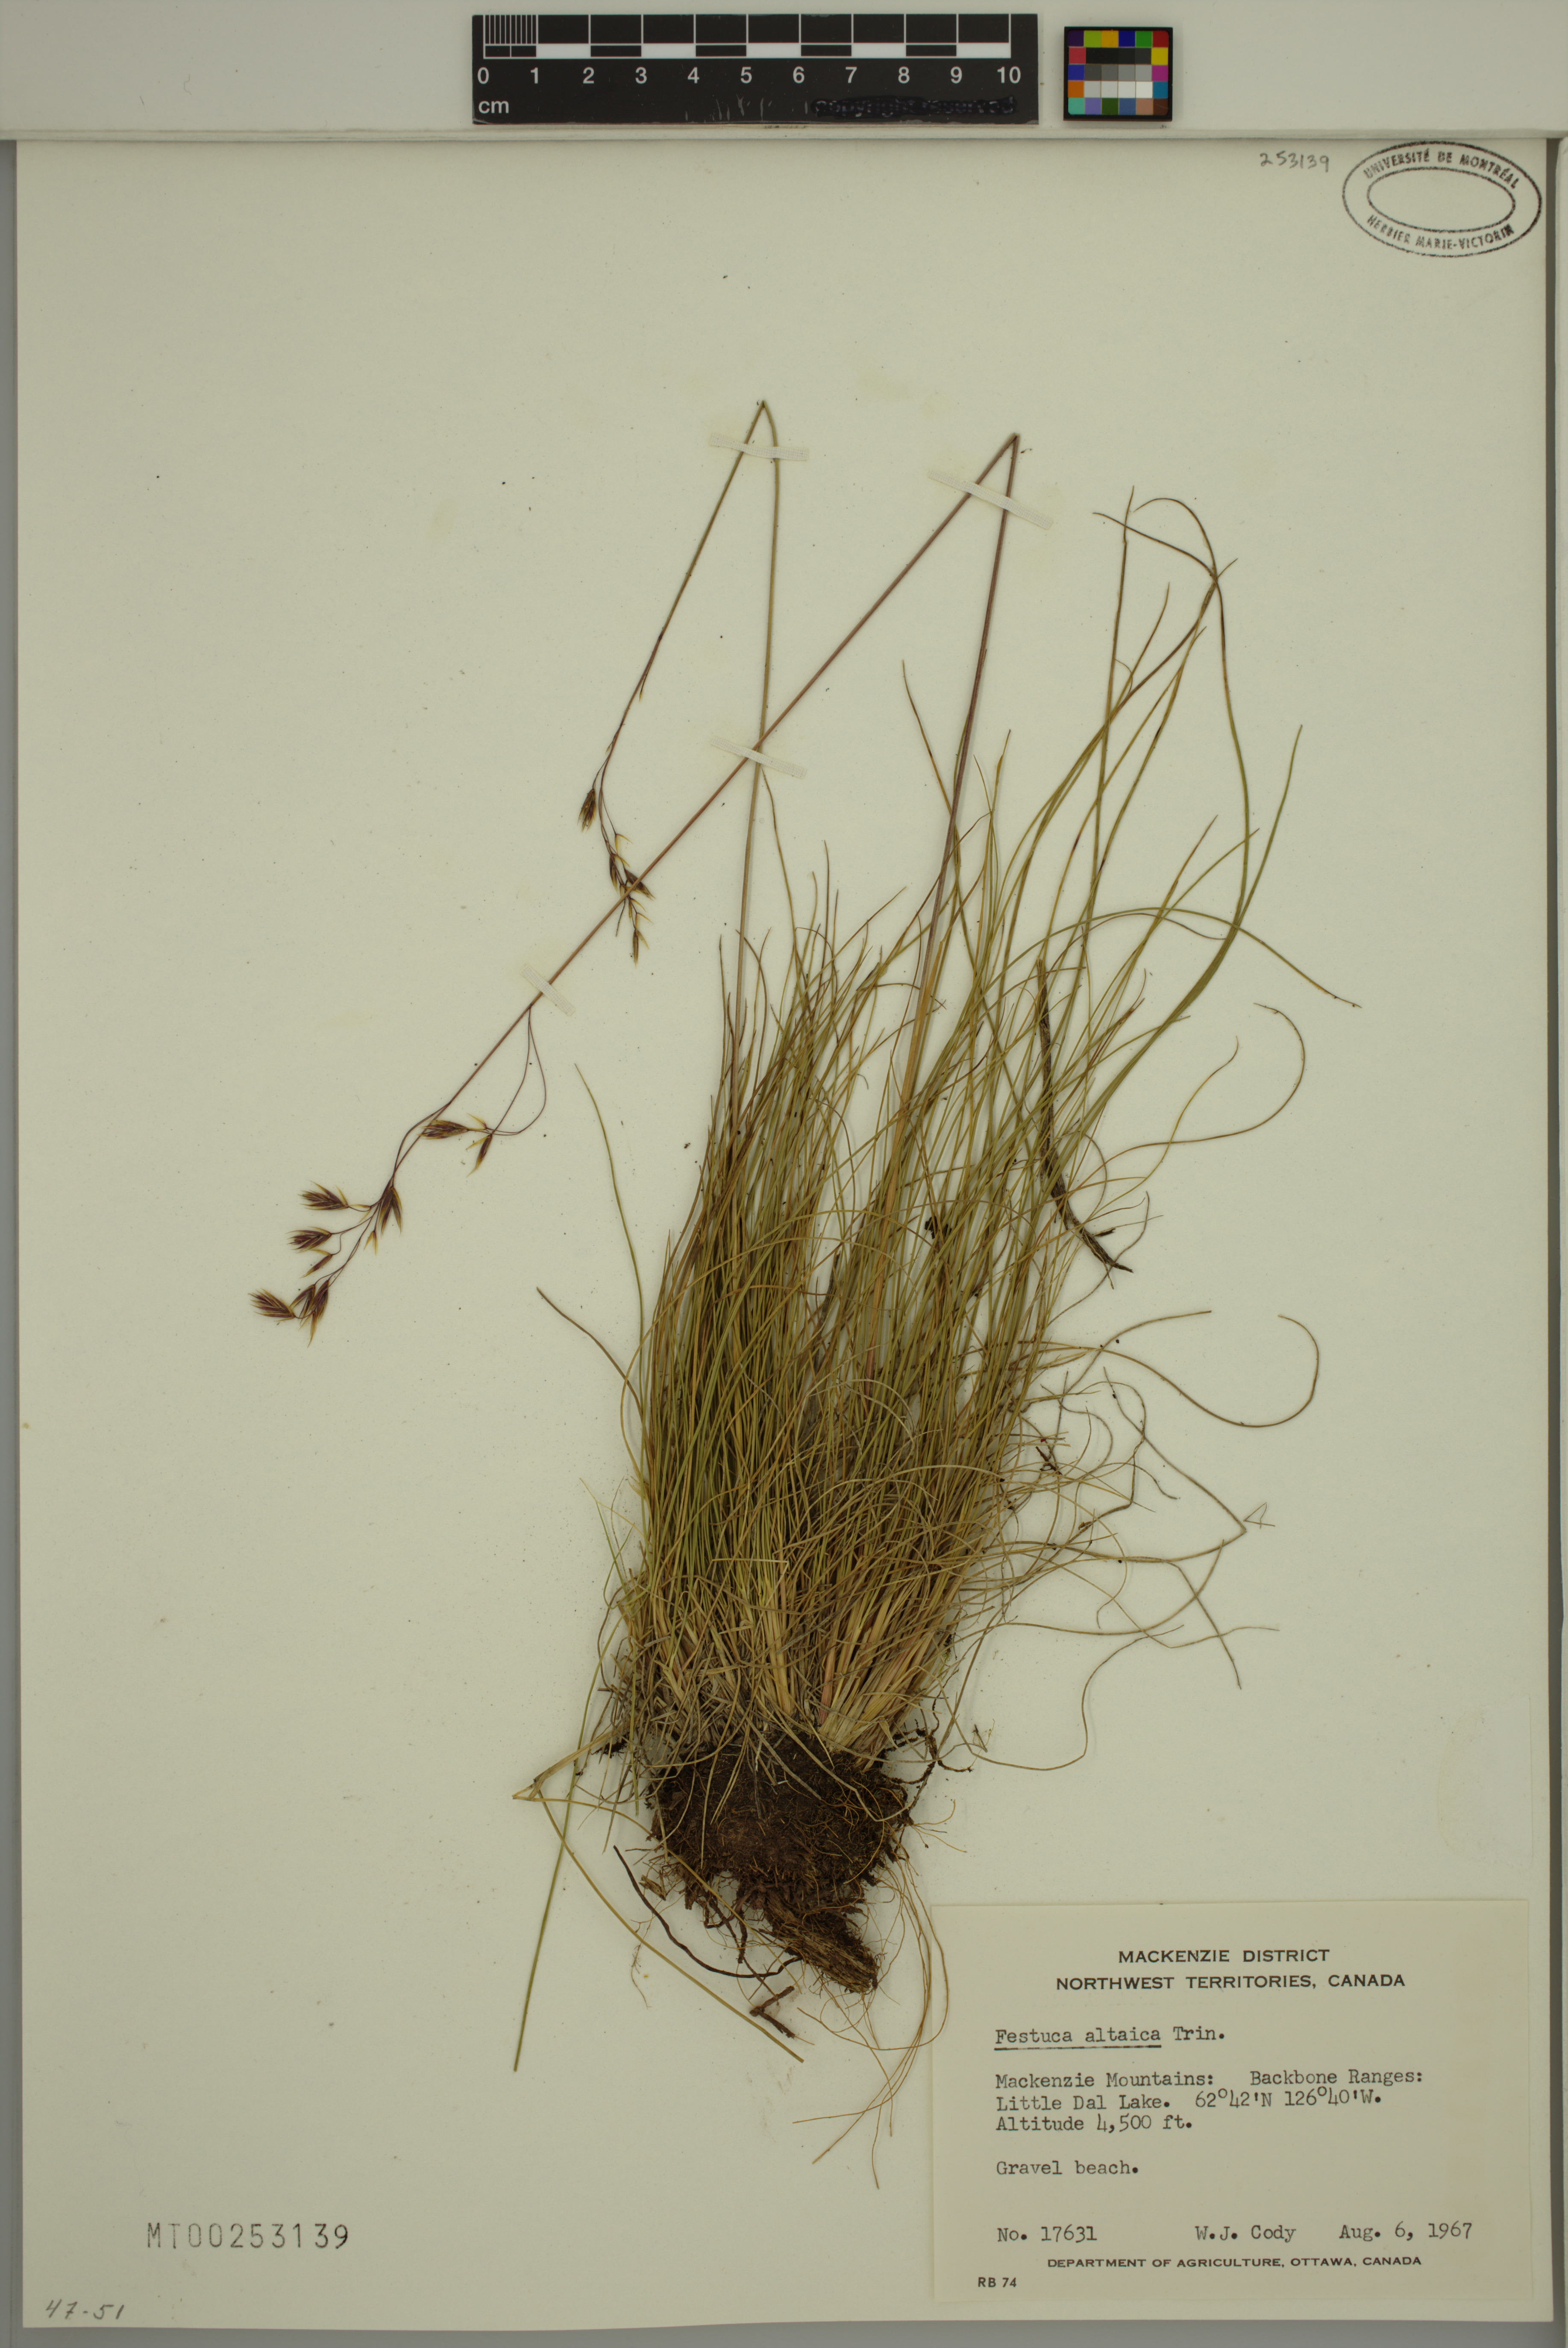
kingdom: Plantae
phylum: Tracheophyta
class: Liliopsida
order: Poales
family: Poaceae
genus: Festuca
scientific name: Festuca altaica
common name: Northern rough fescue
